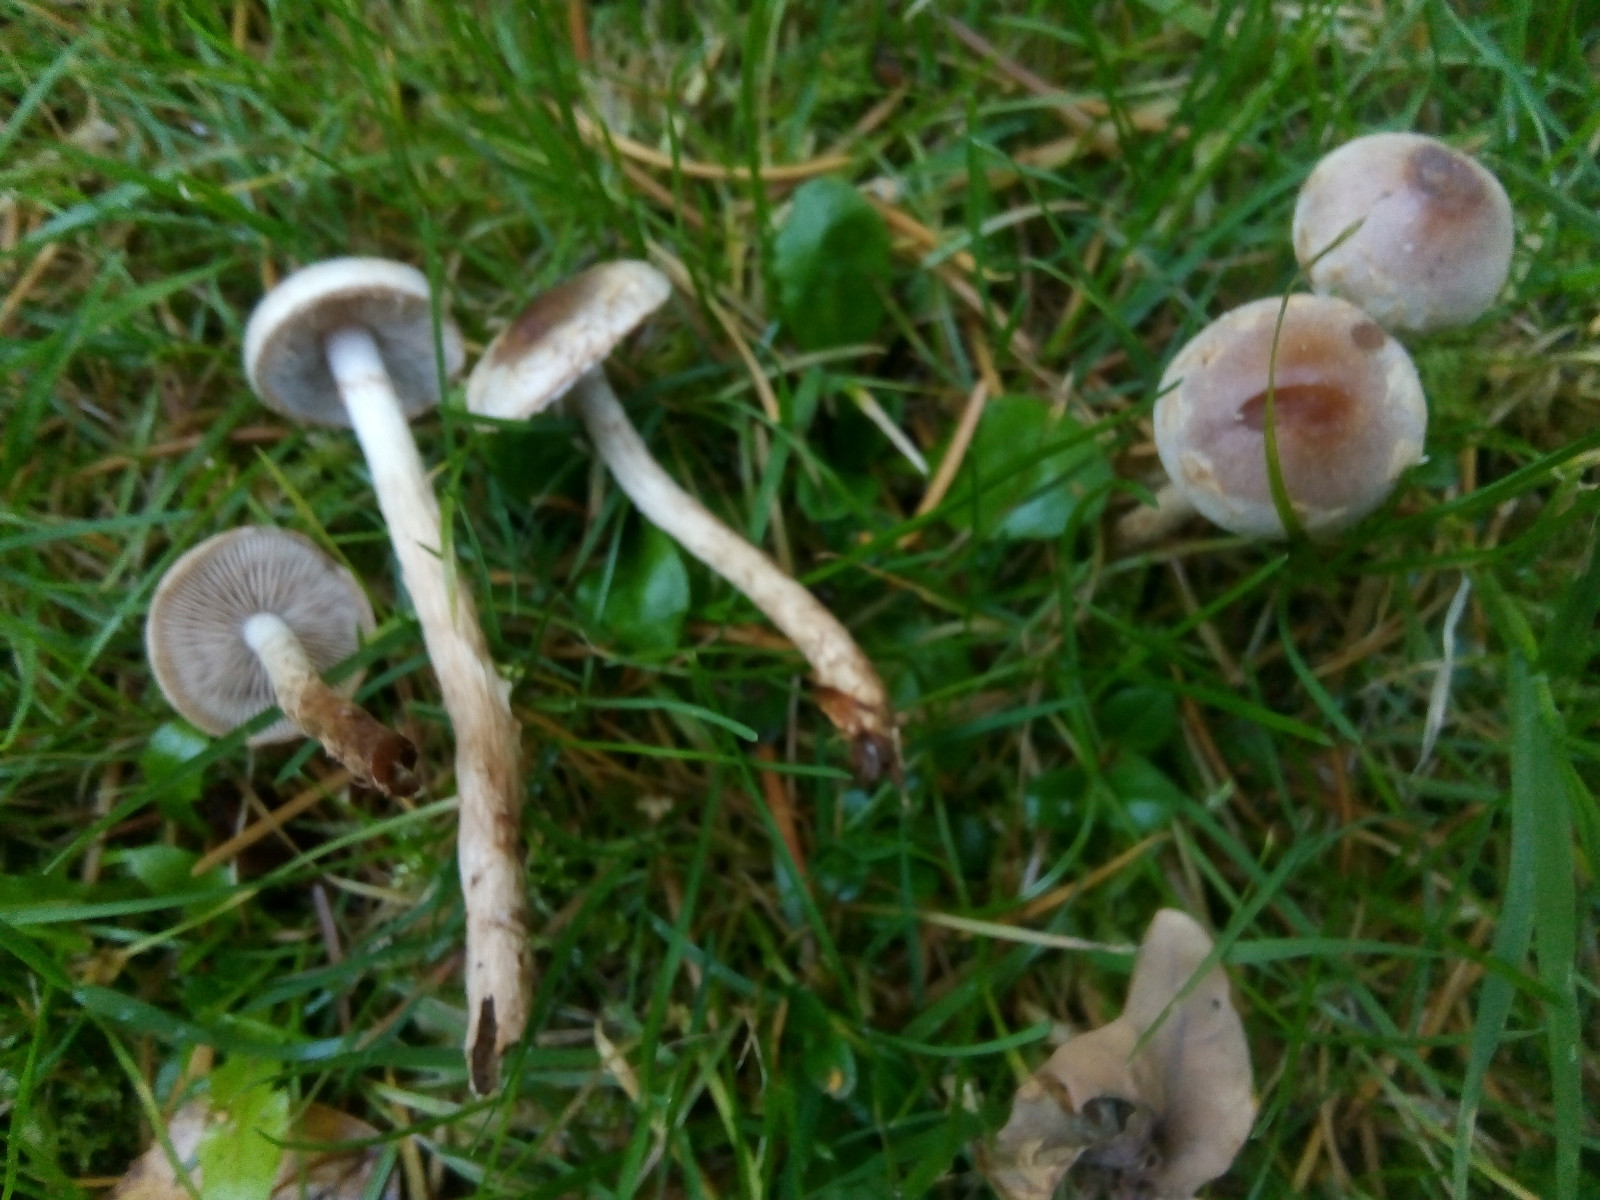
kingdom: Fungi
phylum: Basidiomycota
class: Agaricomycetes
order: Agaricales
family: Hymenogastraceae
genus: Hebeloma
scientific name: Hebeloma mesophaeum
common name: lerbrun tåreblad
